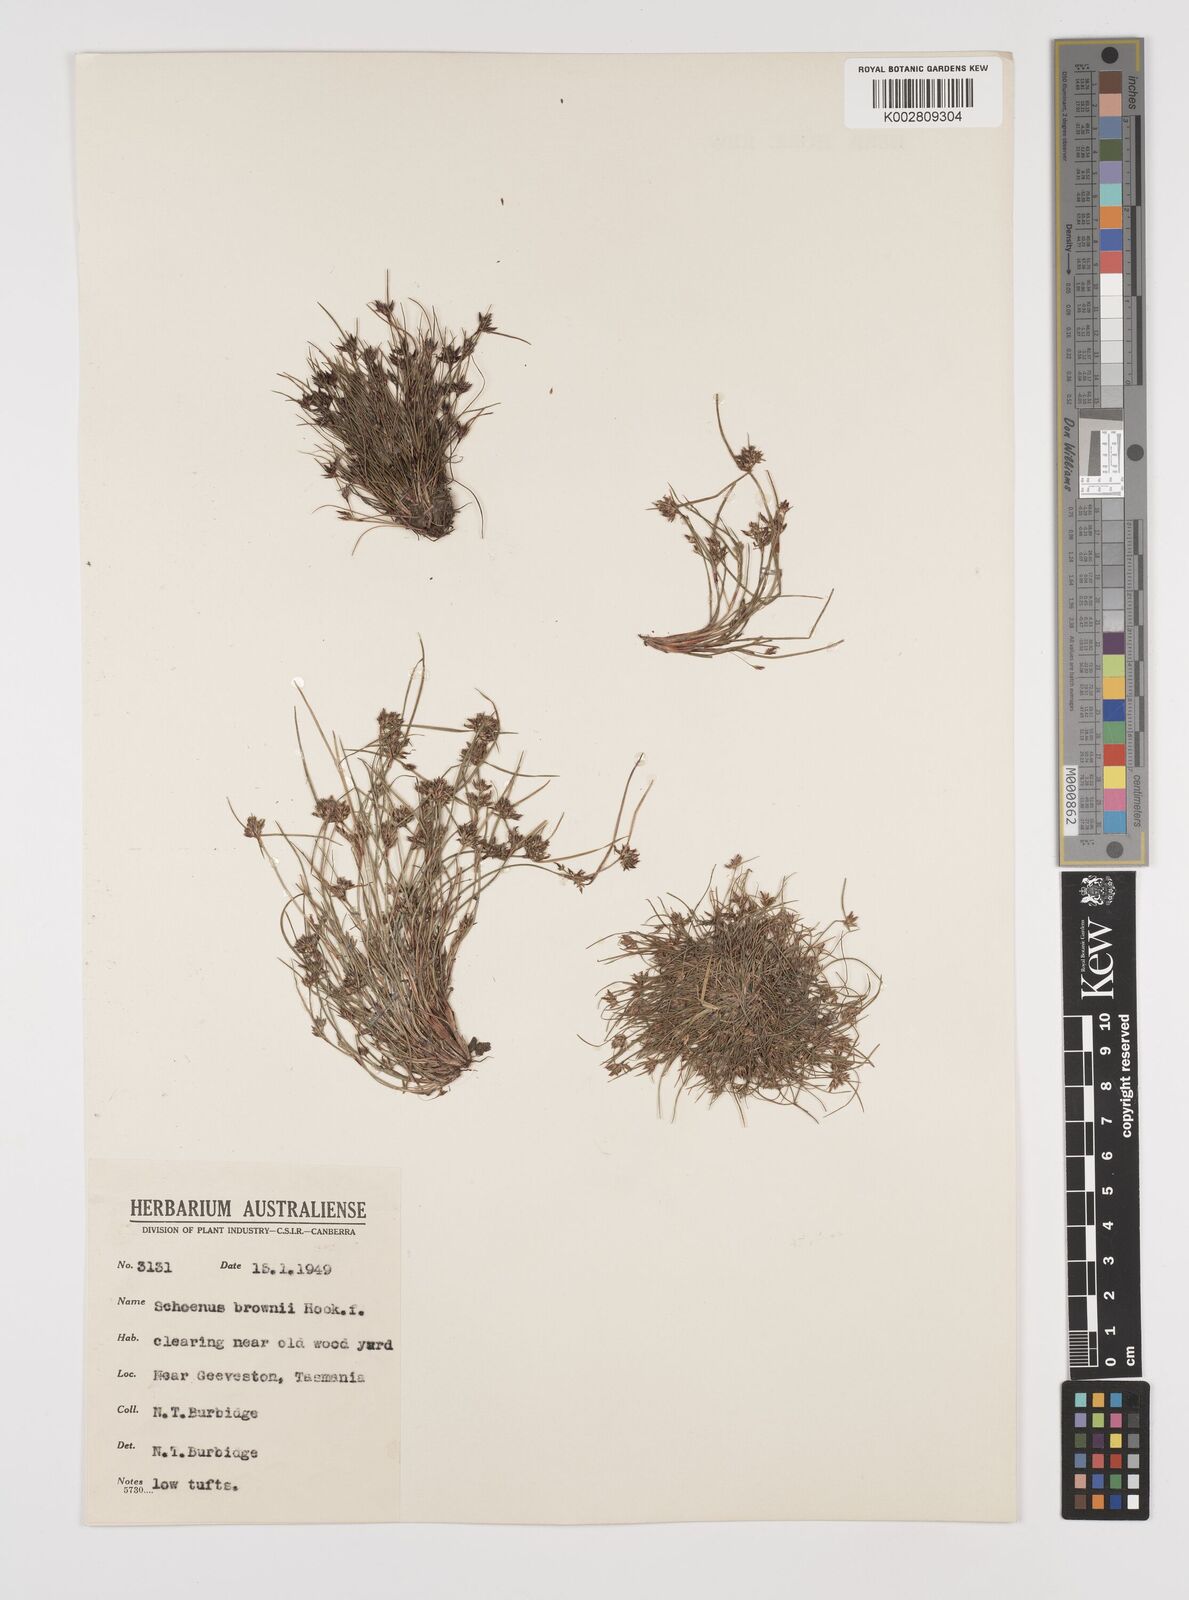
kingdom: Plantae
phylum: Tracheophyta
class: Liliopsida
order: Poales
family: Cyperaceae
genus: Schoenus
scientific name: Schoenus apogon
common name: Smooth bogrush
